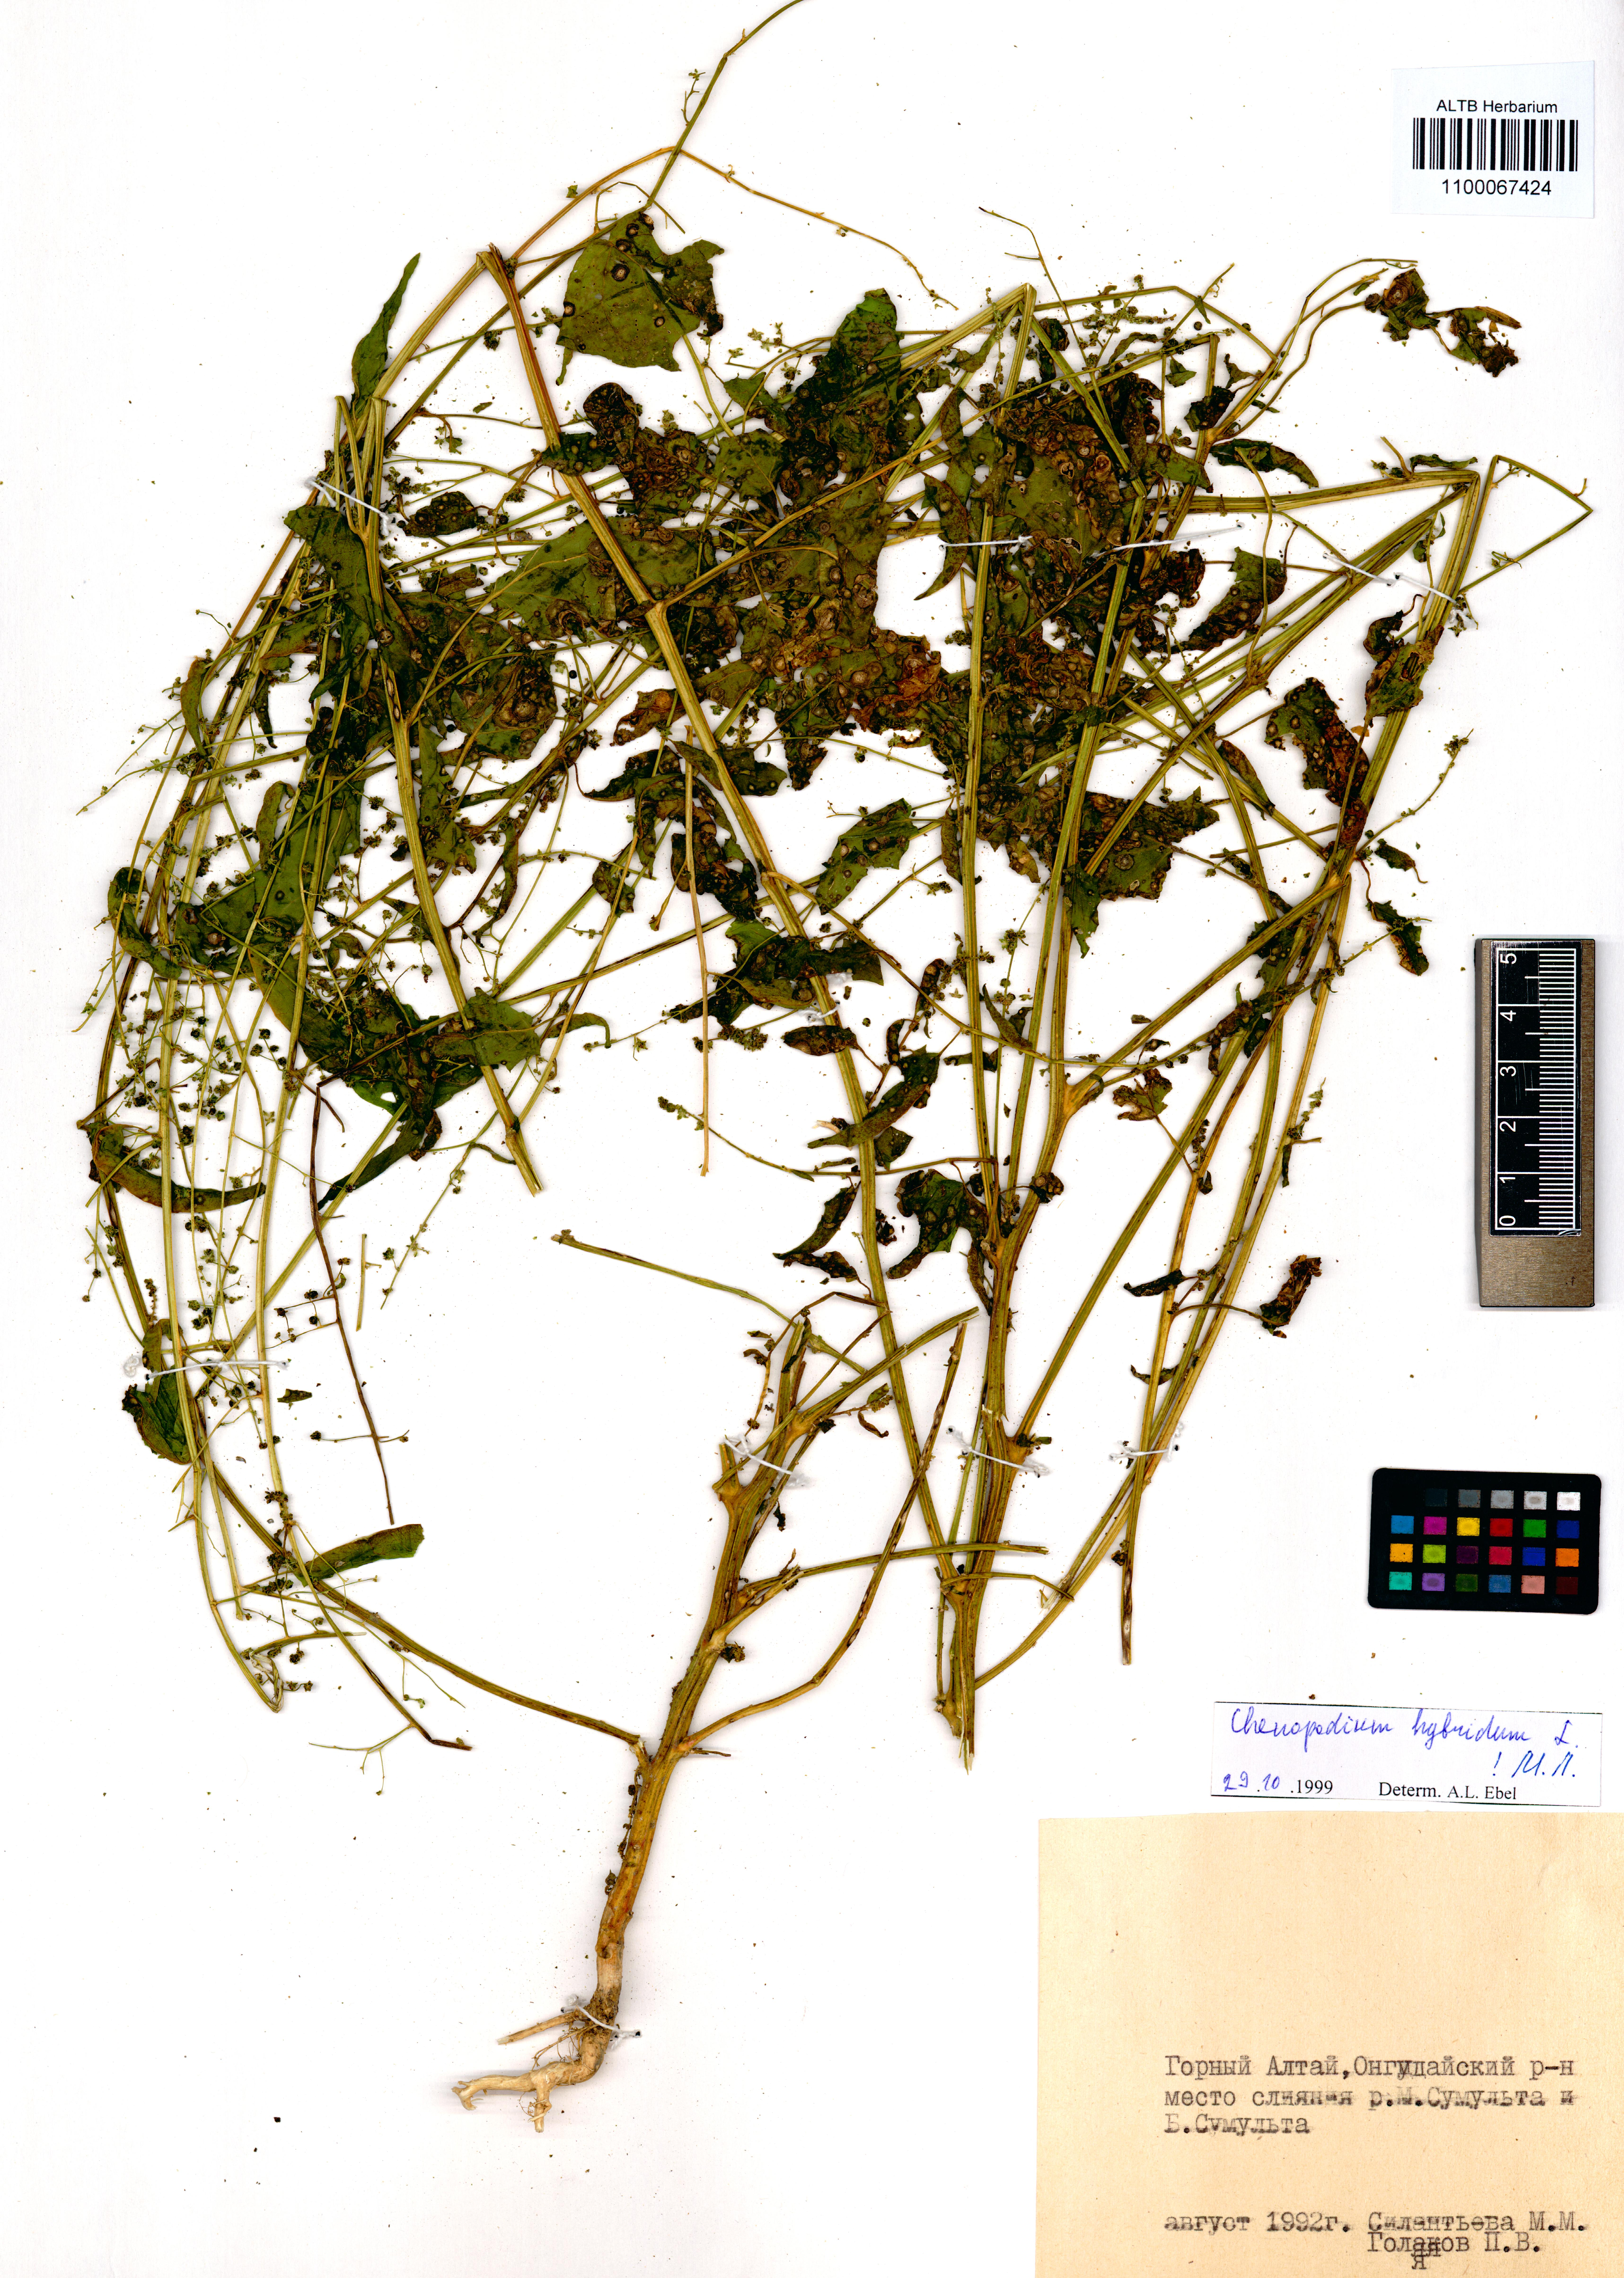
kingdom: Plantae
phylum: Tracheophyta
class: Magnoliopsida
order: Caryophyllales
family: Amaranthaceae
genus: Chenopodiastrum
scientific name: Chenopodiastrum hybridum
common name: Mapleleaf goosefoot
